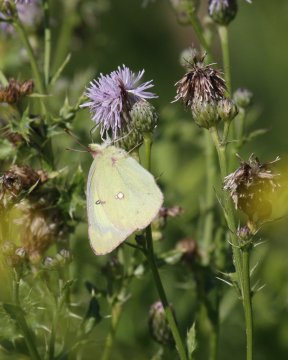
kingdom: Animalia
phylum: Arthropoda
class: Insecta
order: Lepidoptera
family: Pieridae
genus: Colias
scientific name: Colias philodice
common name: Clouded Sulphur
